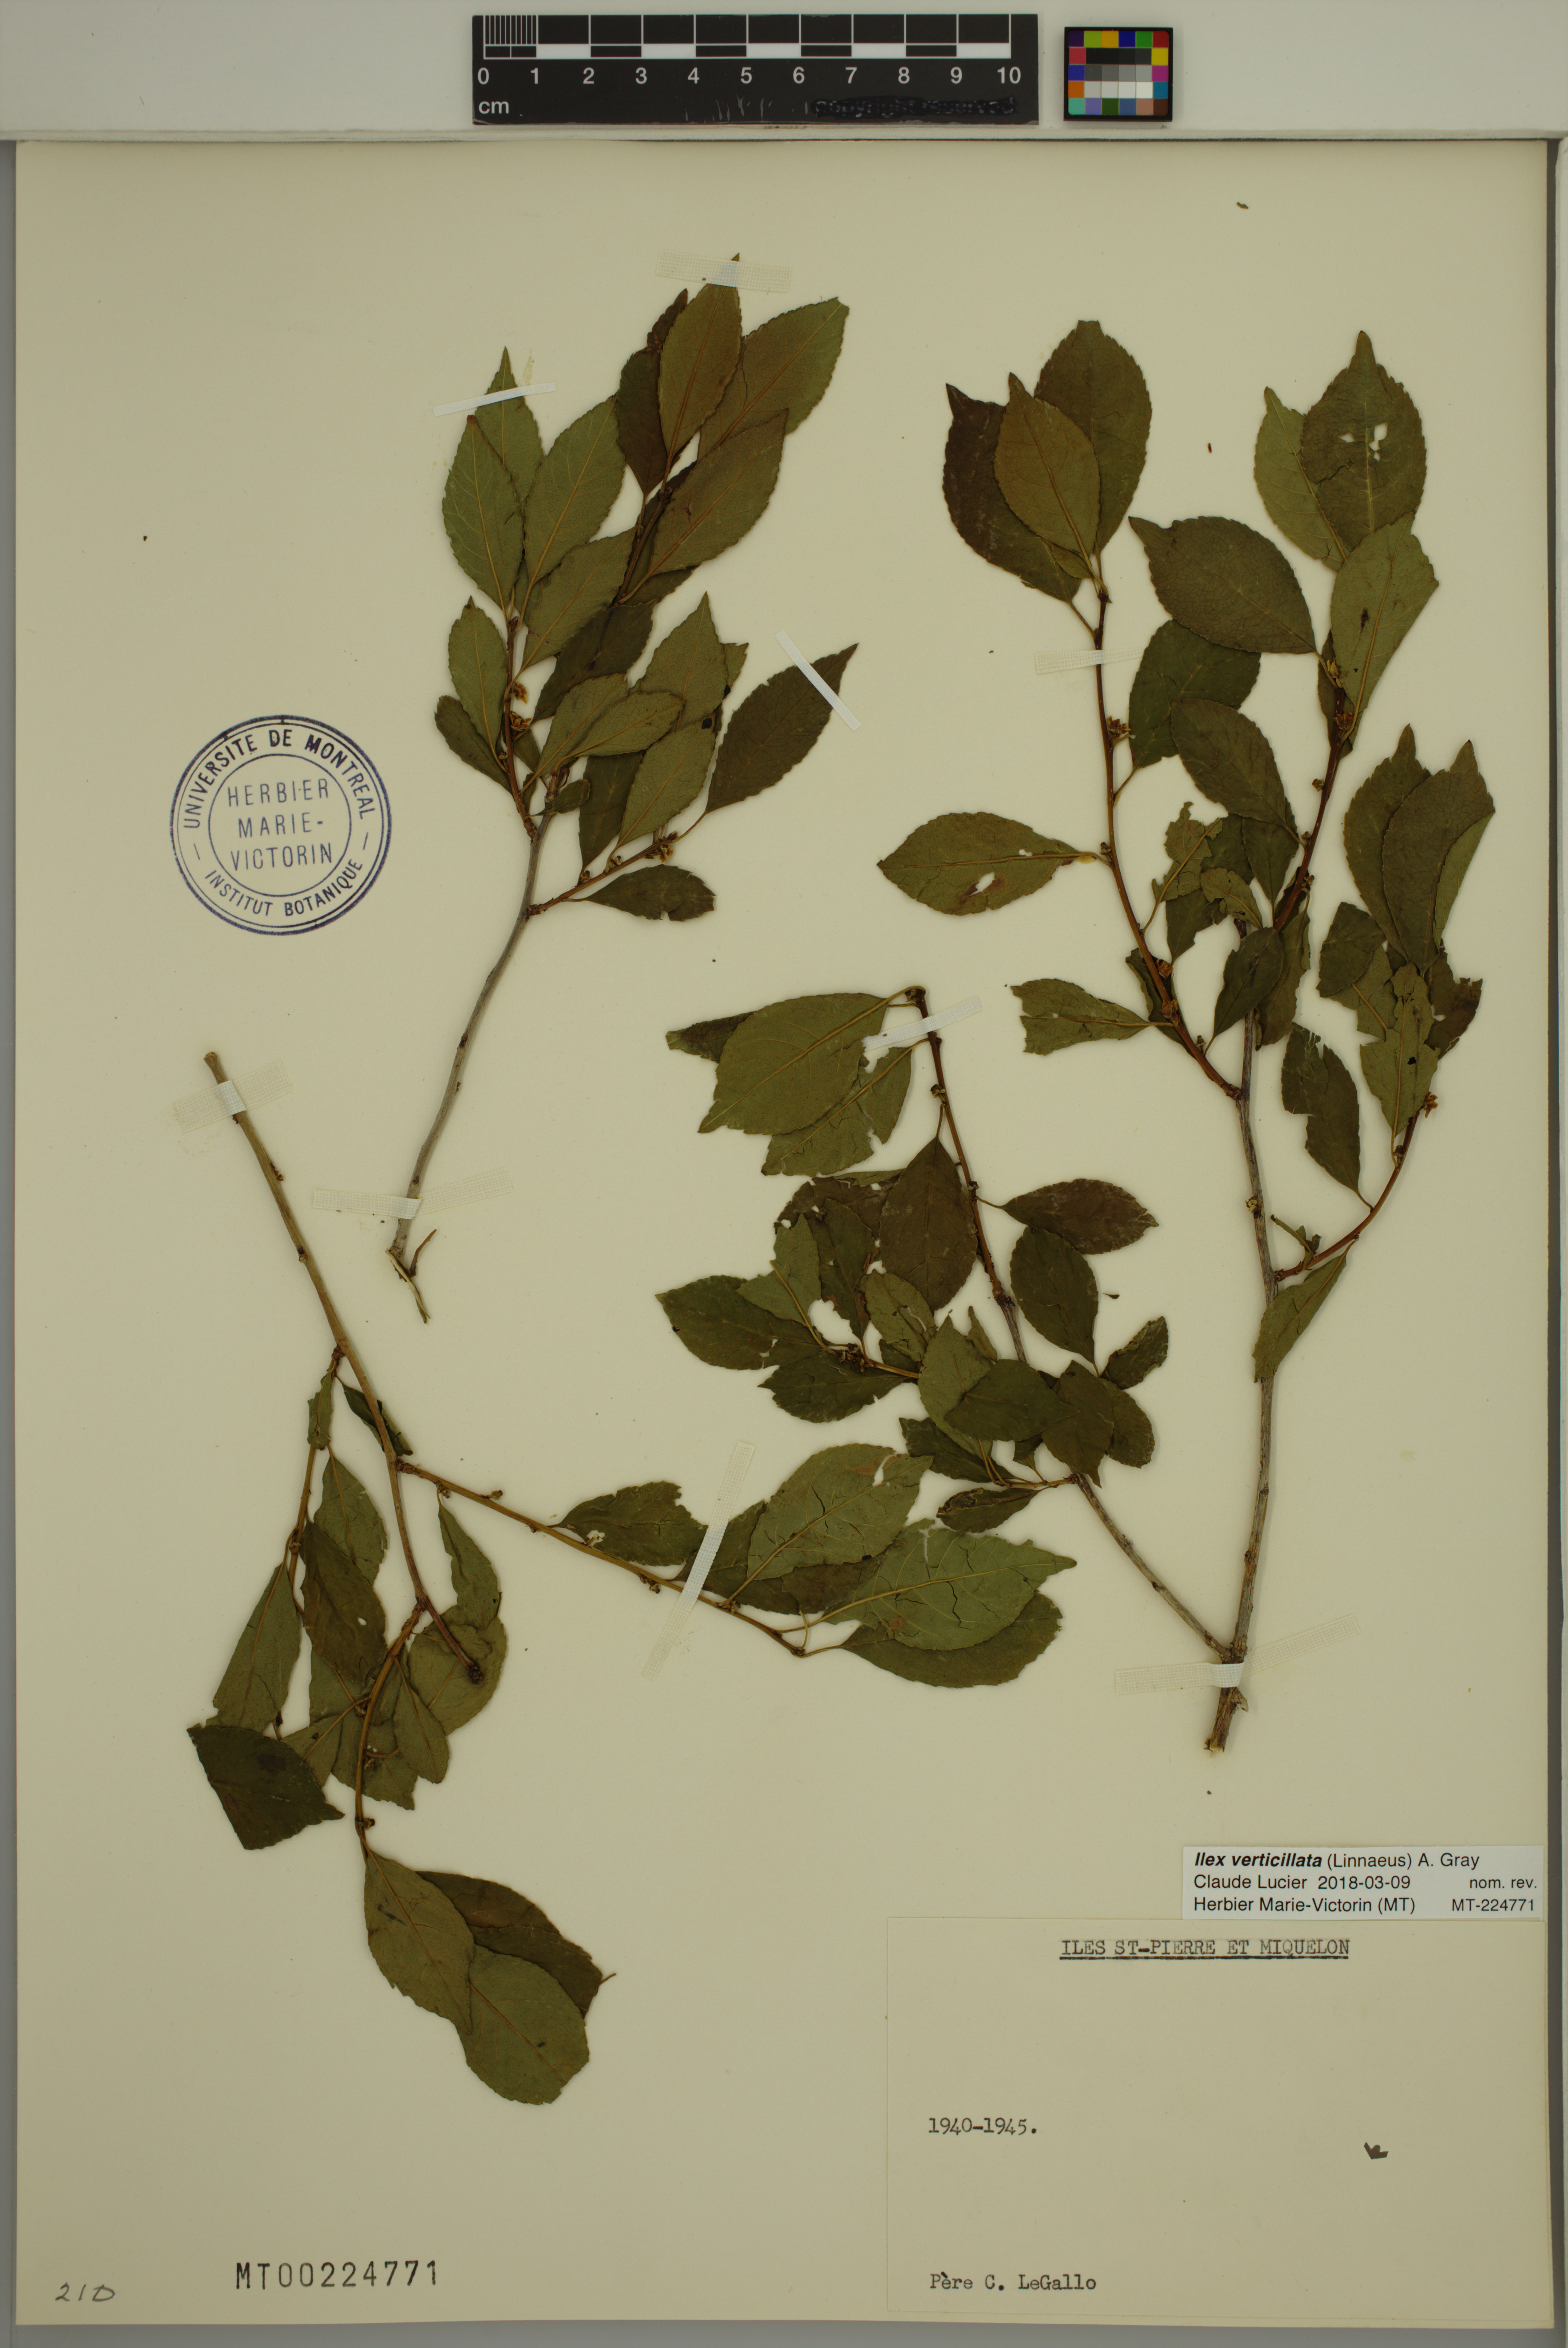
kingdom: Plantae
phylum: Tracheophyta
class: Magnoliopsida
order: Aquifoliales
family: Aquifoliaceae
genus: Ilex
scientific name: Ilex verticillata
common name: Virginia winterberry
